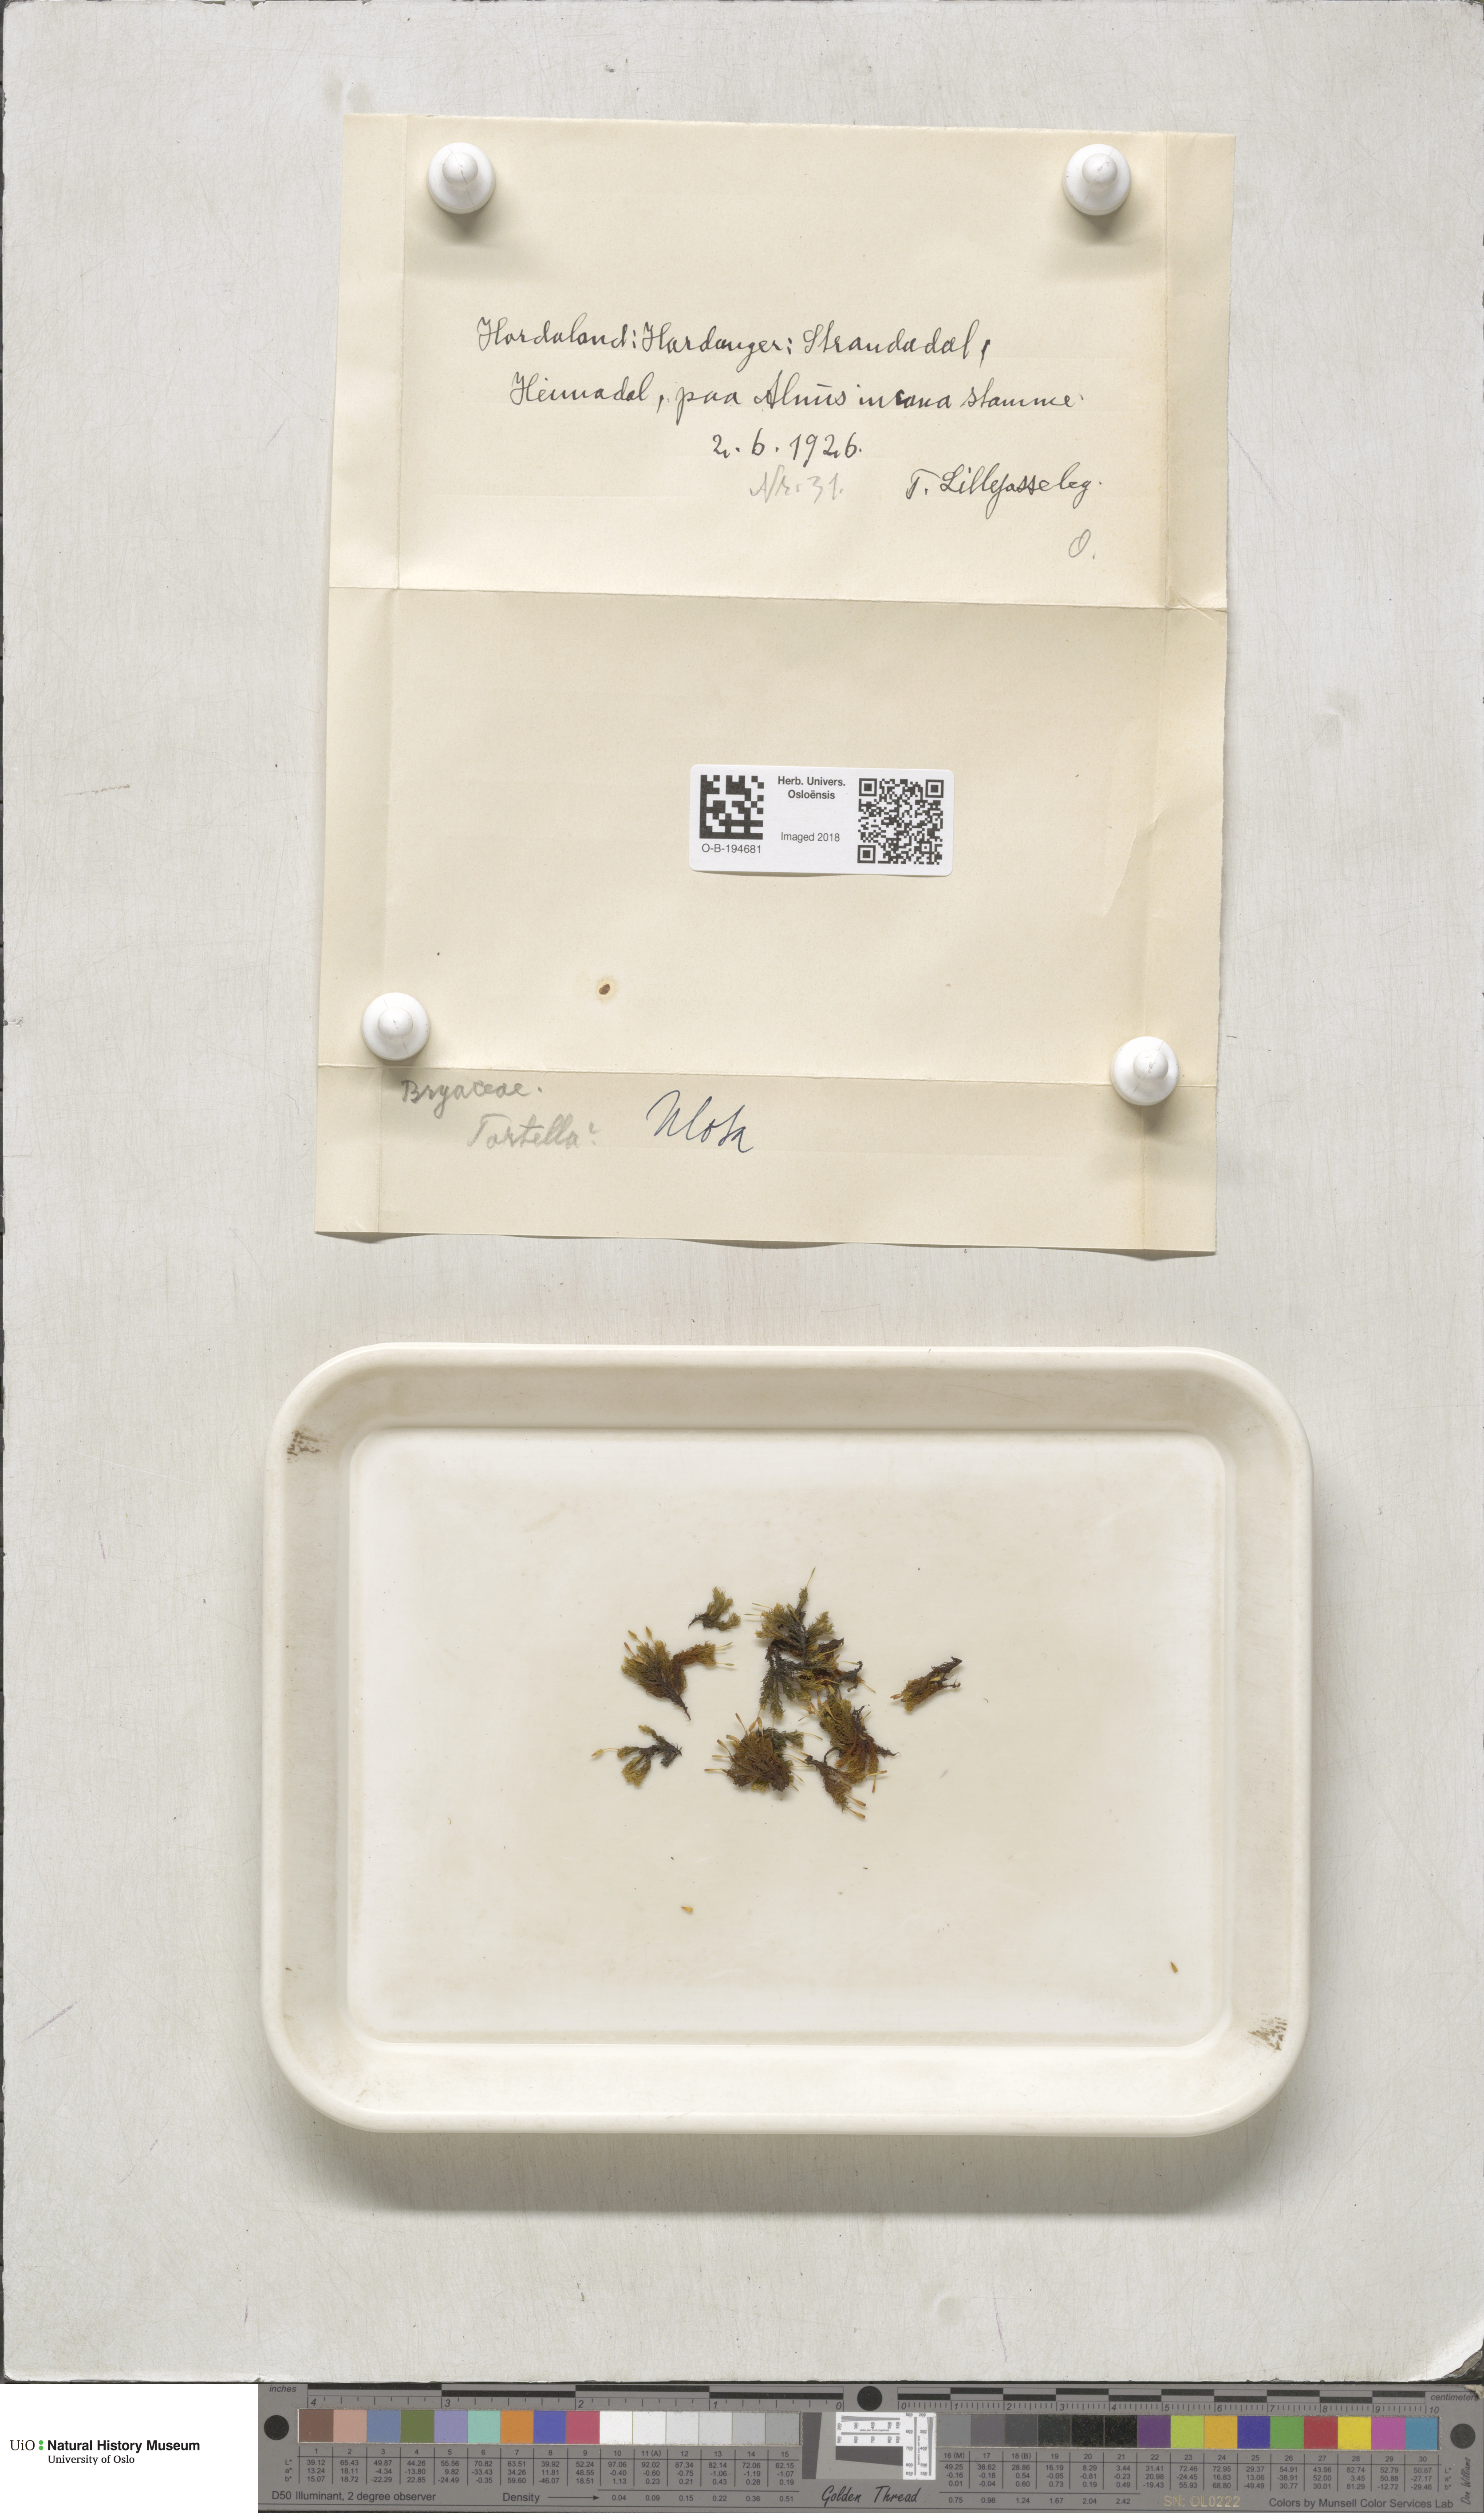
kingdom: Plantae
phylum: Bryophyta
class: Bryopsida
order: Orthotrichales
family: Orthotrichaceae
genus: Ulota
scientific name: Ulota
